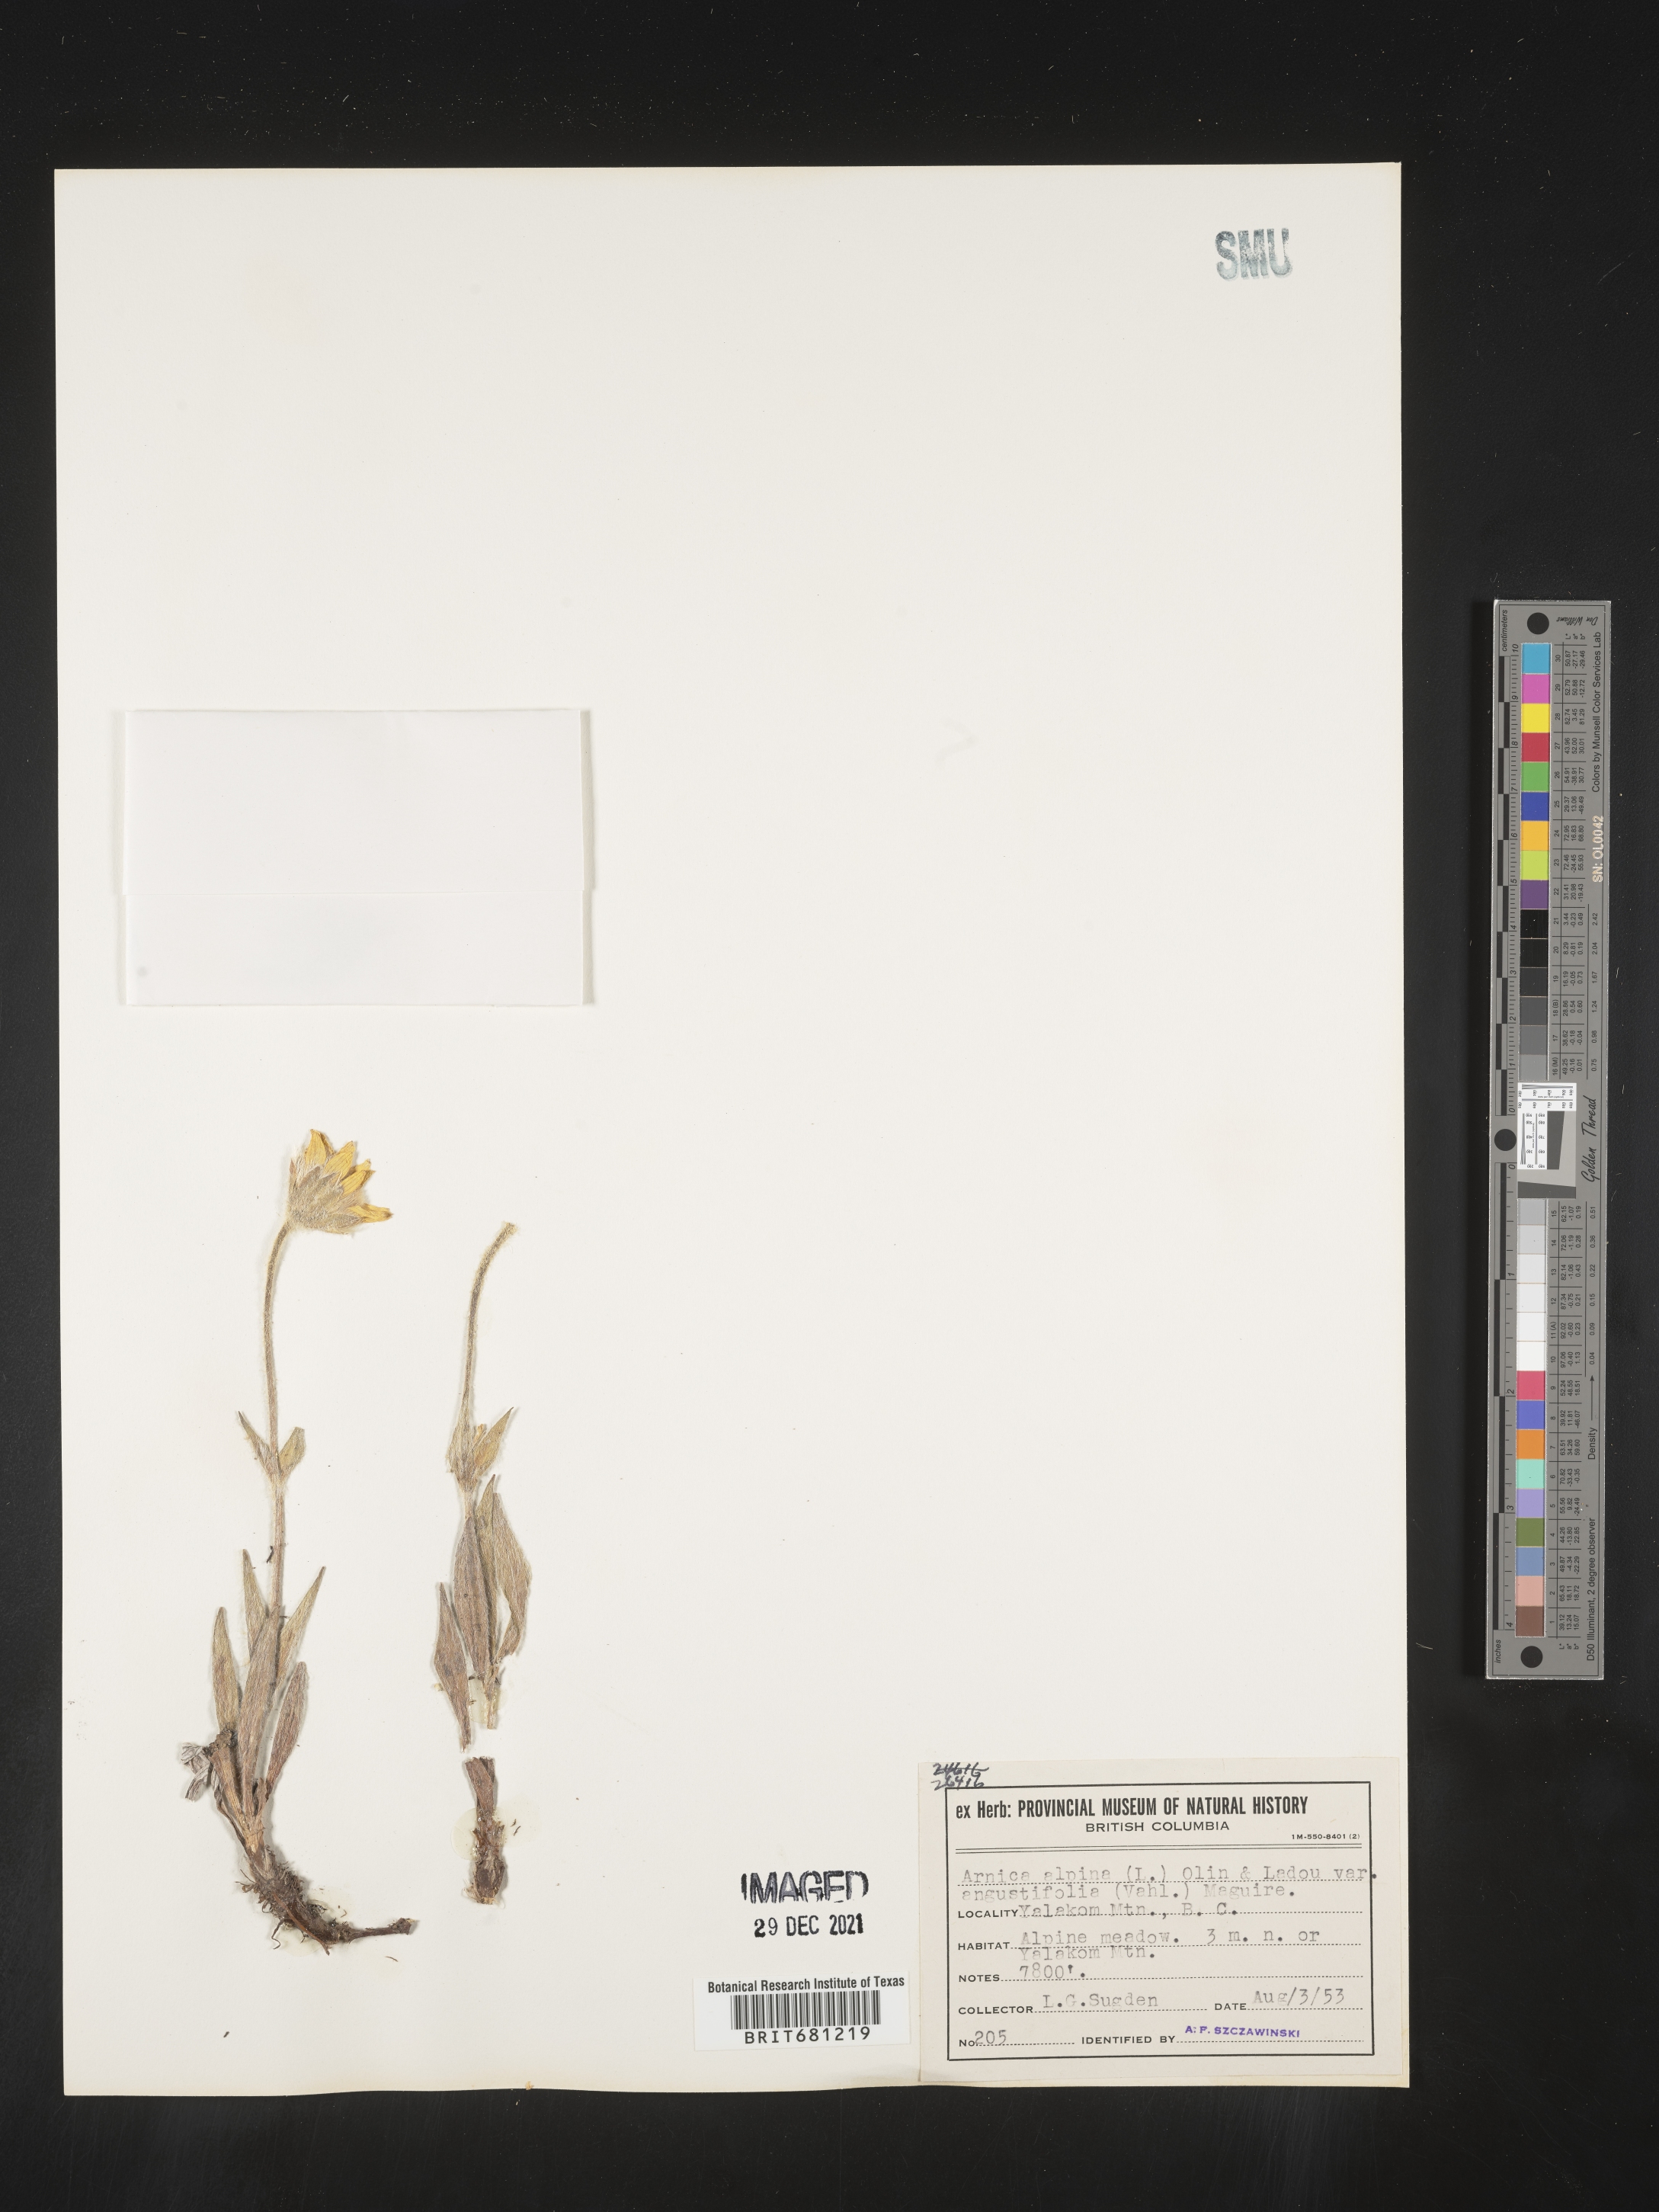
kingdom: Plantae
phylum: Tracheophyta
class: Magnoliopsida
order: Asterales
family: Asteraceae
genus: Arnica
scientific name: Arnica angustifolia
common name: Arctic arnica
